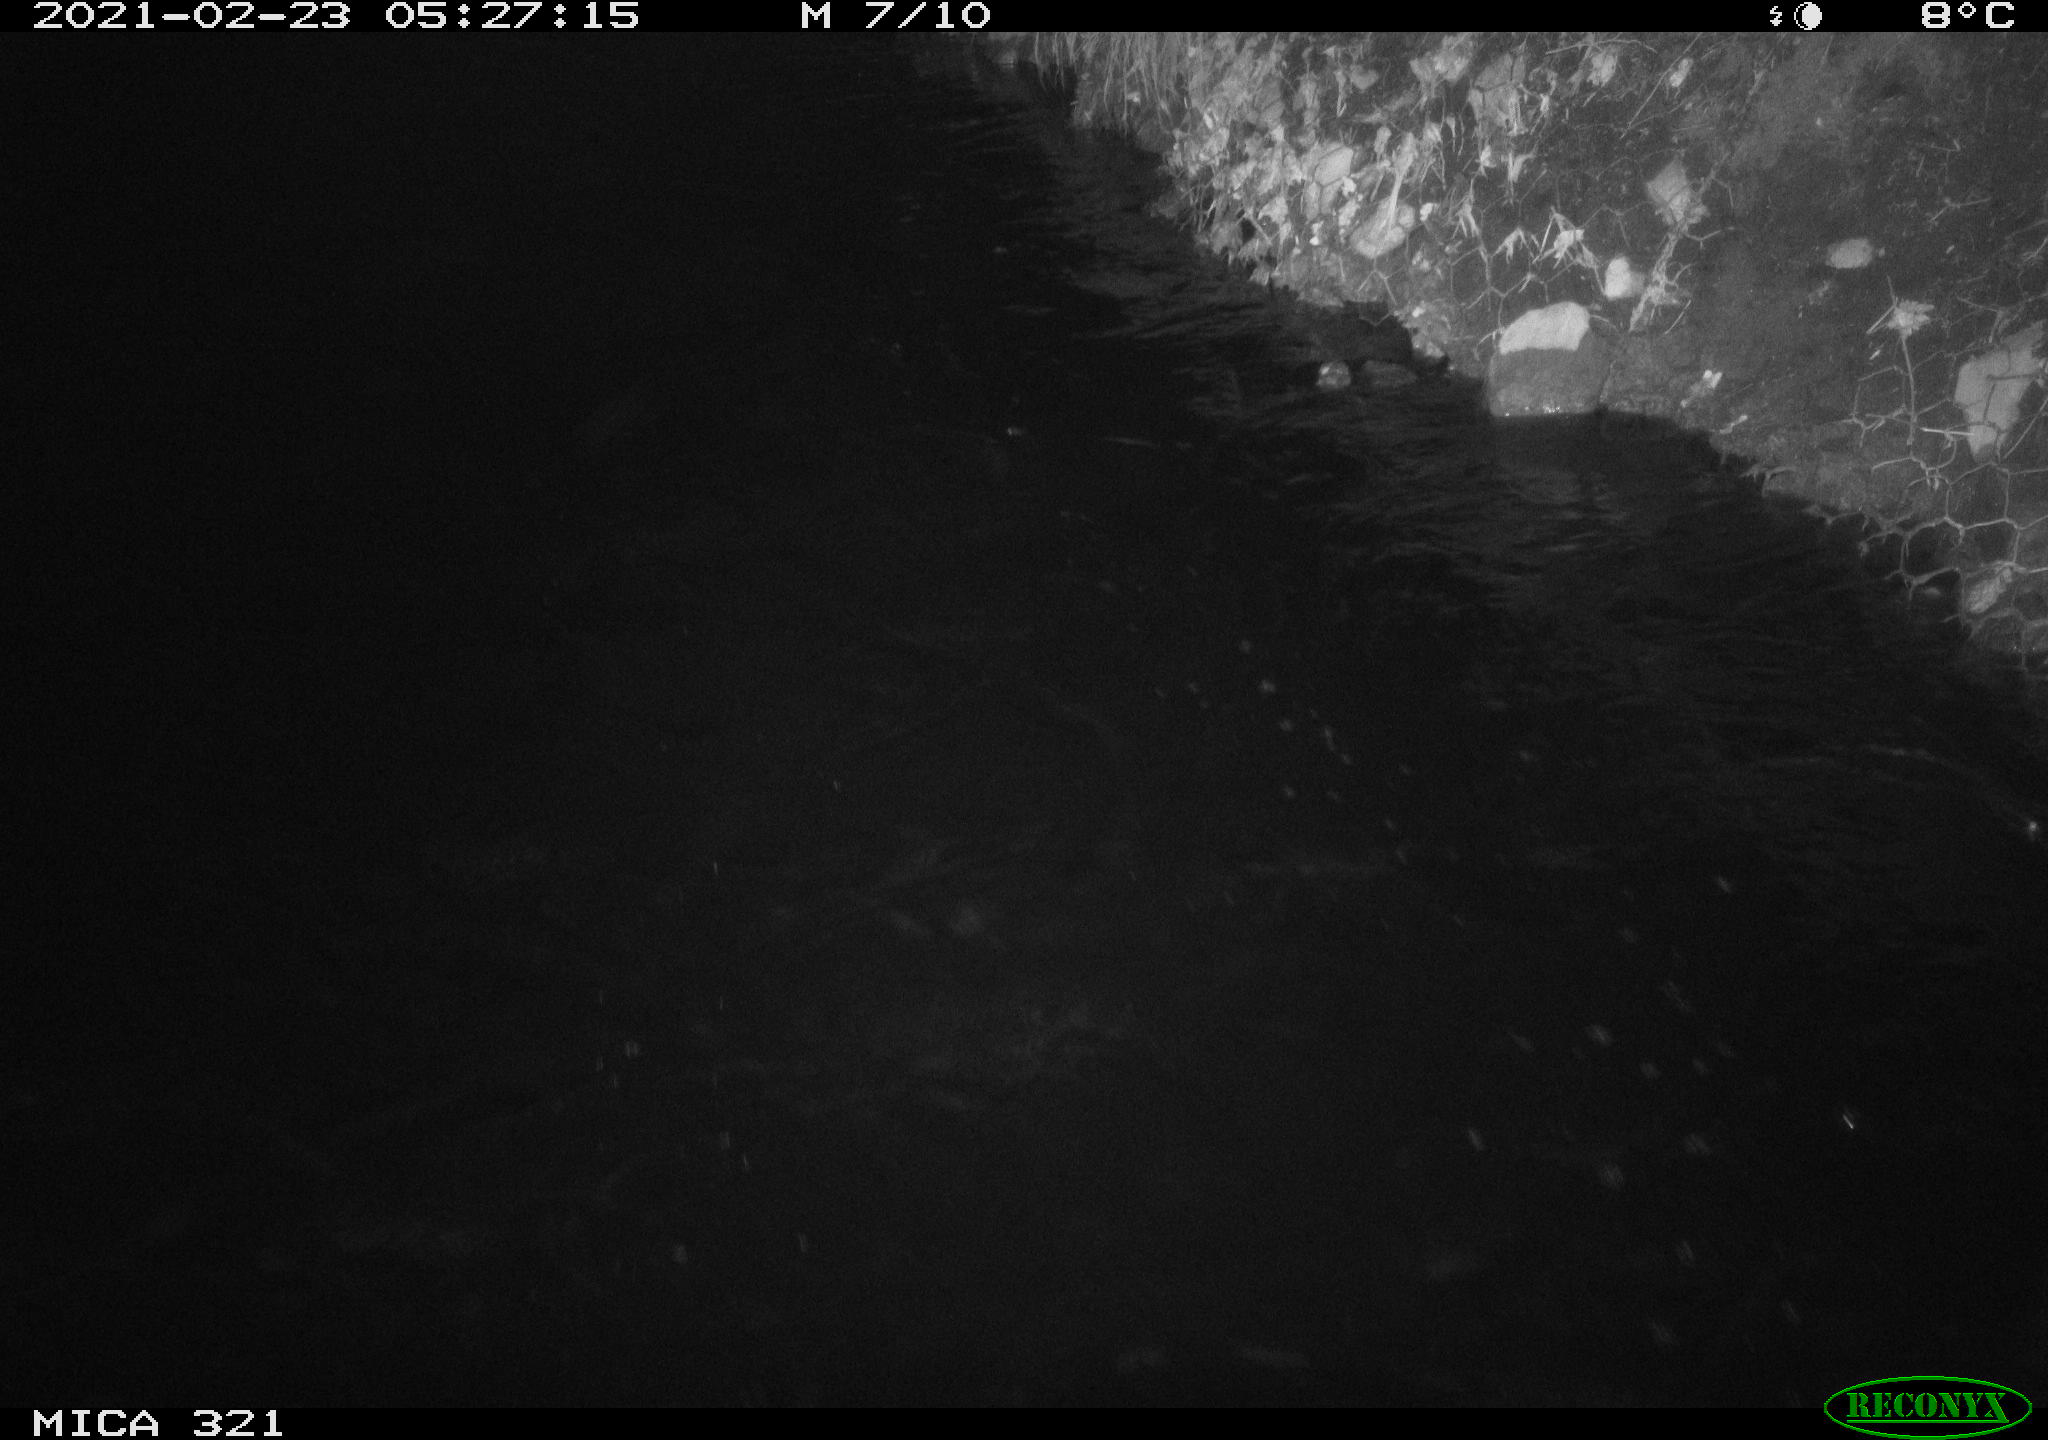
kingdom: Animalia
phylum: Chordata
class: Aves
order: Anseriformes
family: Anatidae
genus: Anas
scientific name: Anas platyrhynchos
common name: Mallard
